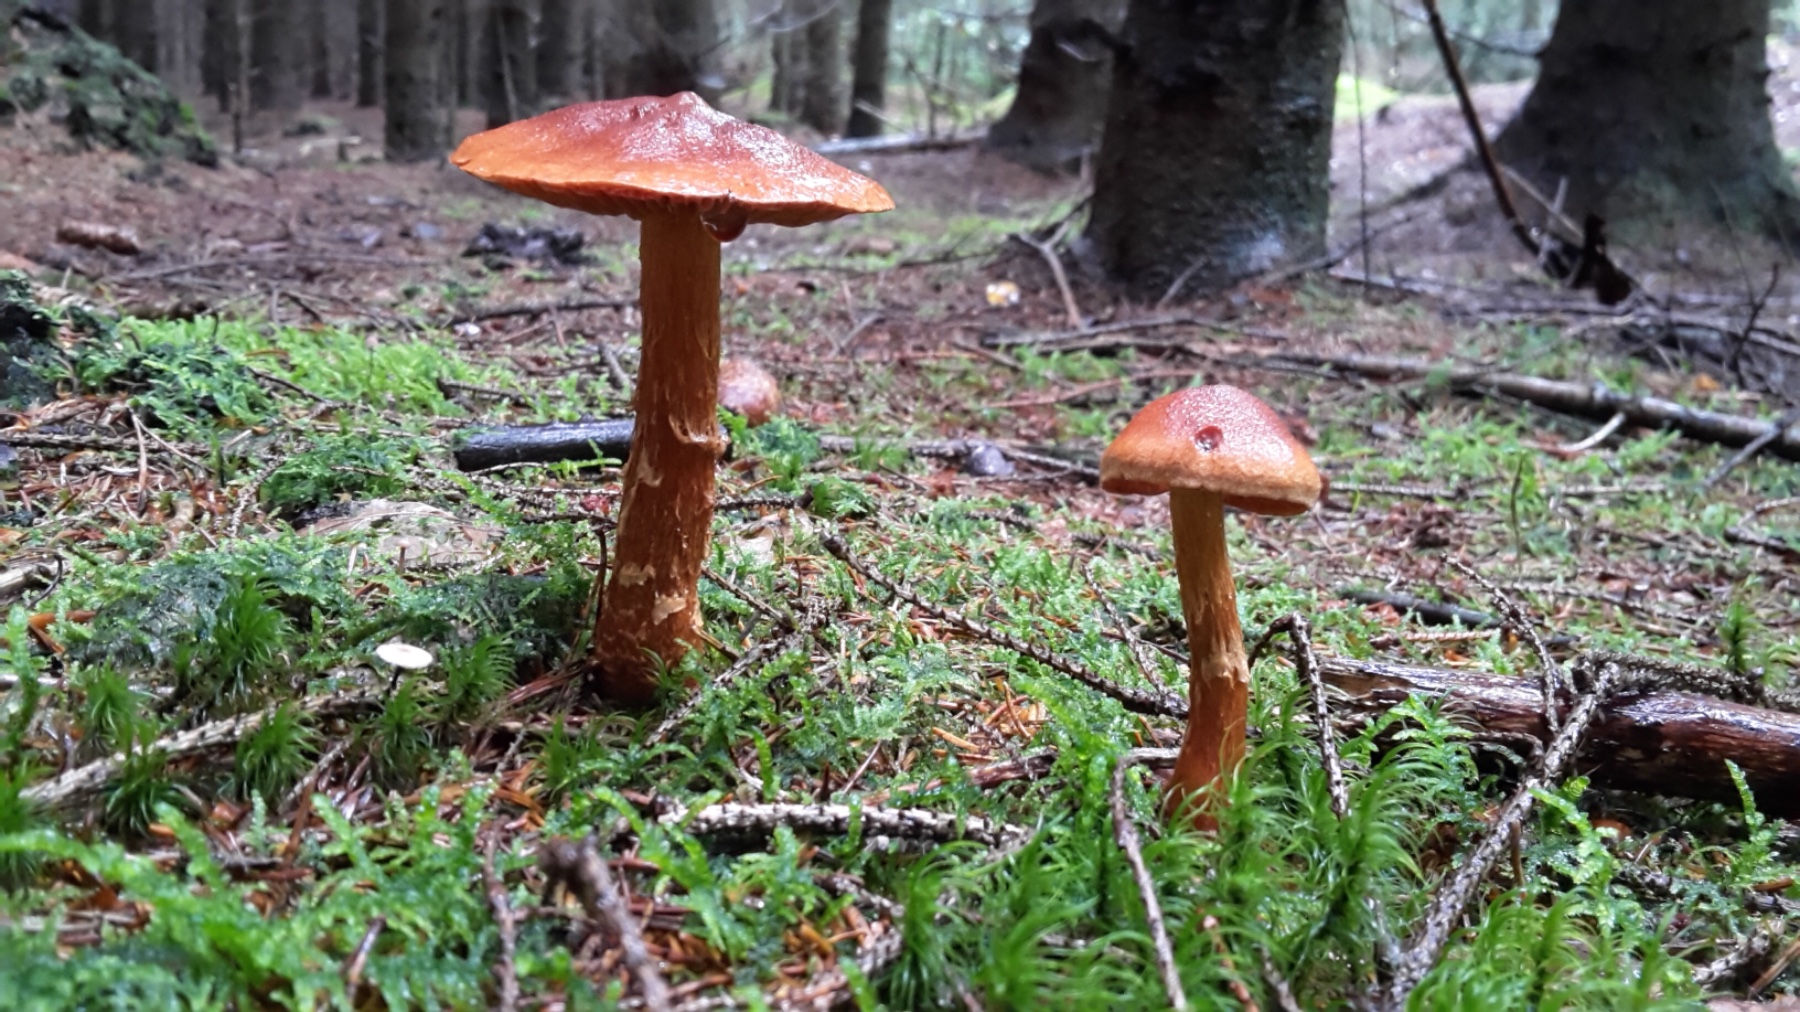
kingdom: Fungi
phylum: Basidiomycota
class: Agaricomycetes
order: Agaricales
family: Cortinariaceae
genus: Cortinarius
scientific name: Cortinarius rubellus
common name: puklet gift-slørhat
